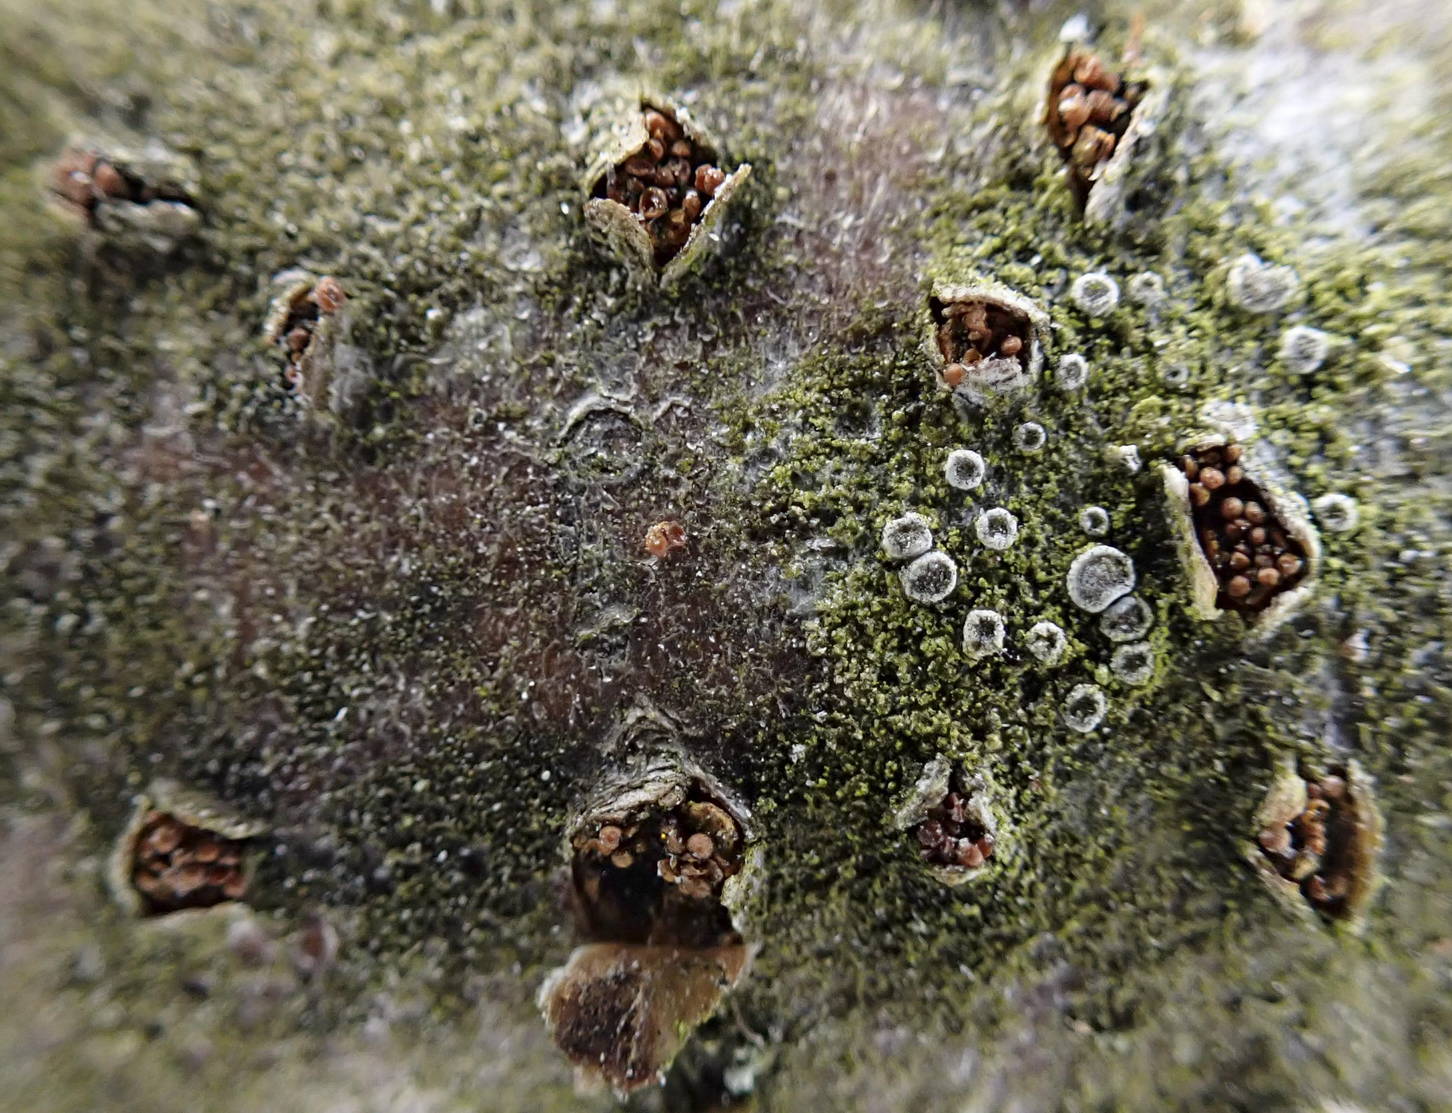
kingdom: Fungi
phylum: Ascomycota
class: Sordariomycetes
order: Hypocreales
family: Nectriaceae
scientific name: Nectriaceae
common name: cinnobersvampfamilien
